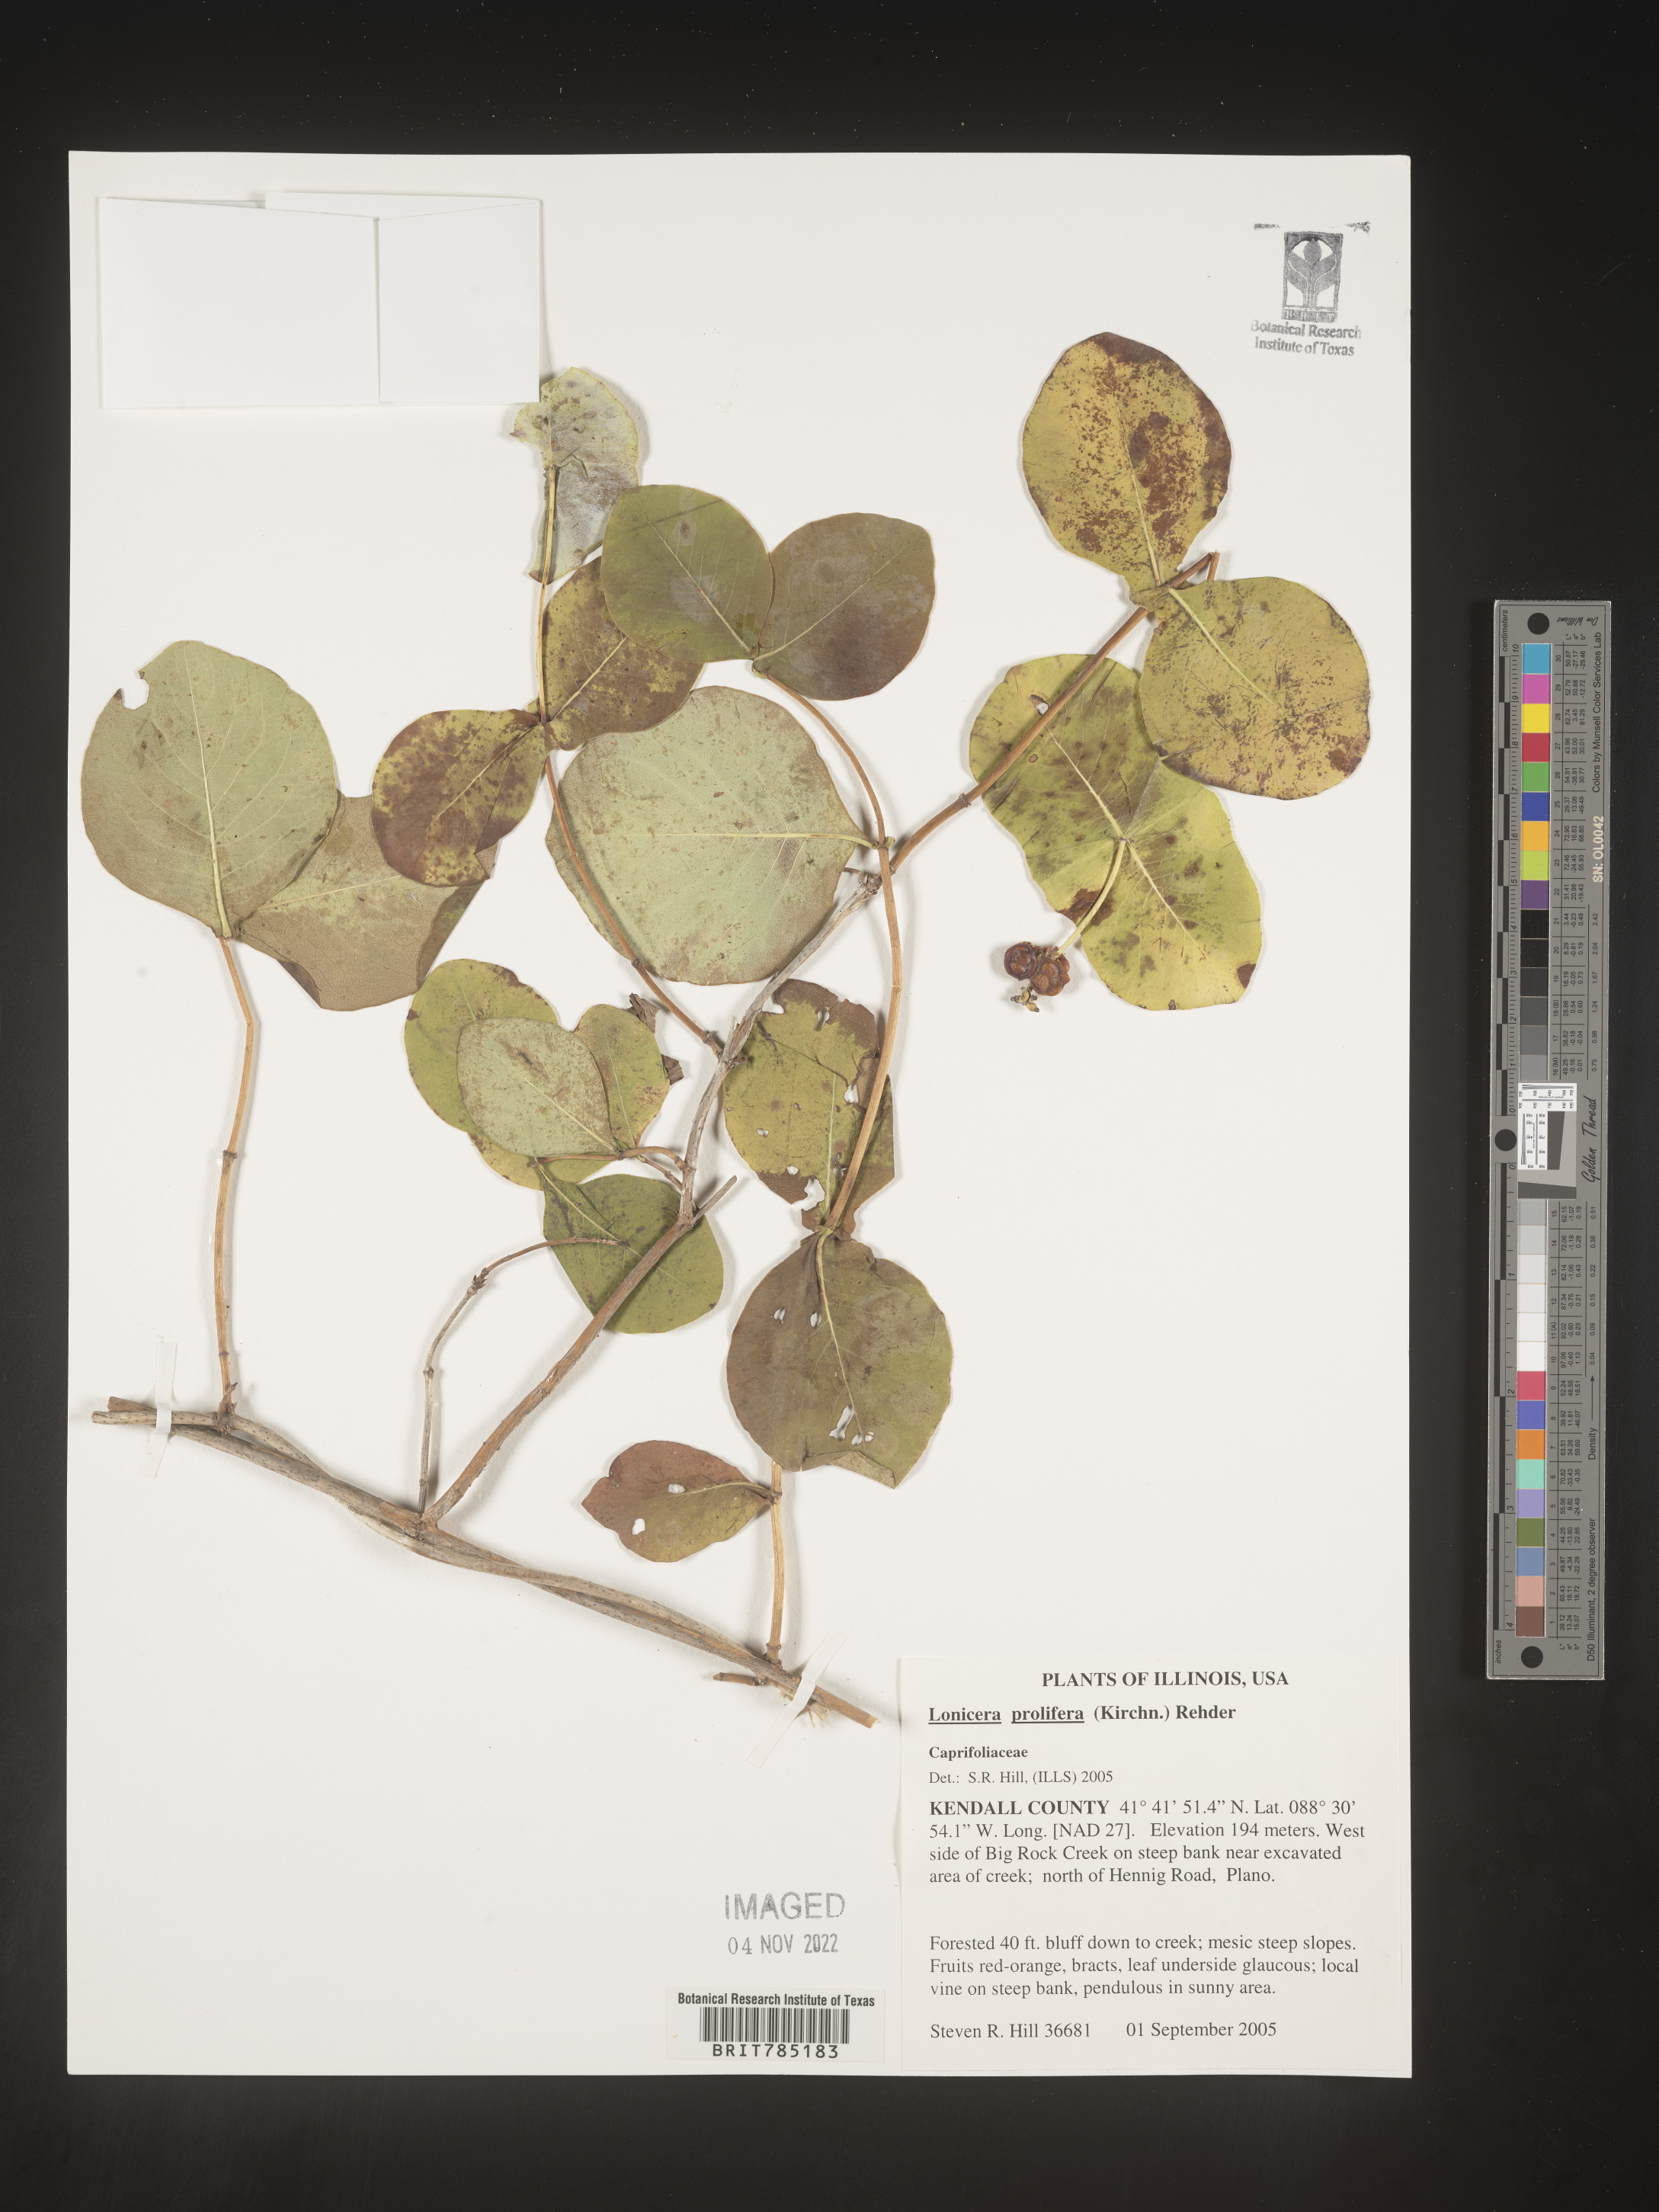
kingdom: Plantae
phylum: Tracheophyta
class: Magnoliopsida
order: Dipsacales
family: Caprifoliaceae
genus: Lonicera
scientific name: Lonicera
